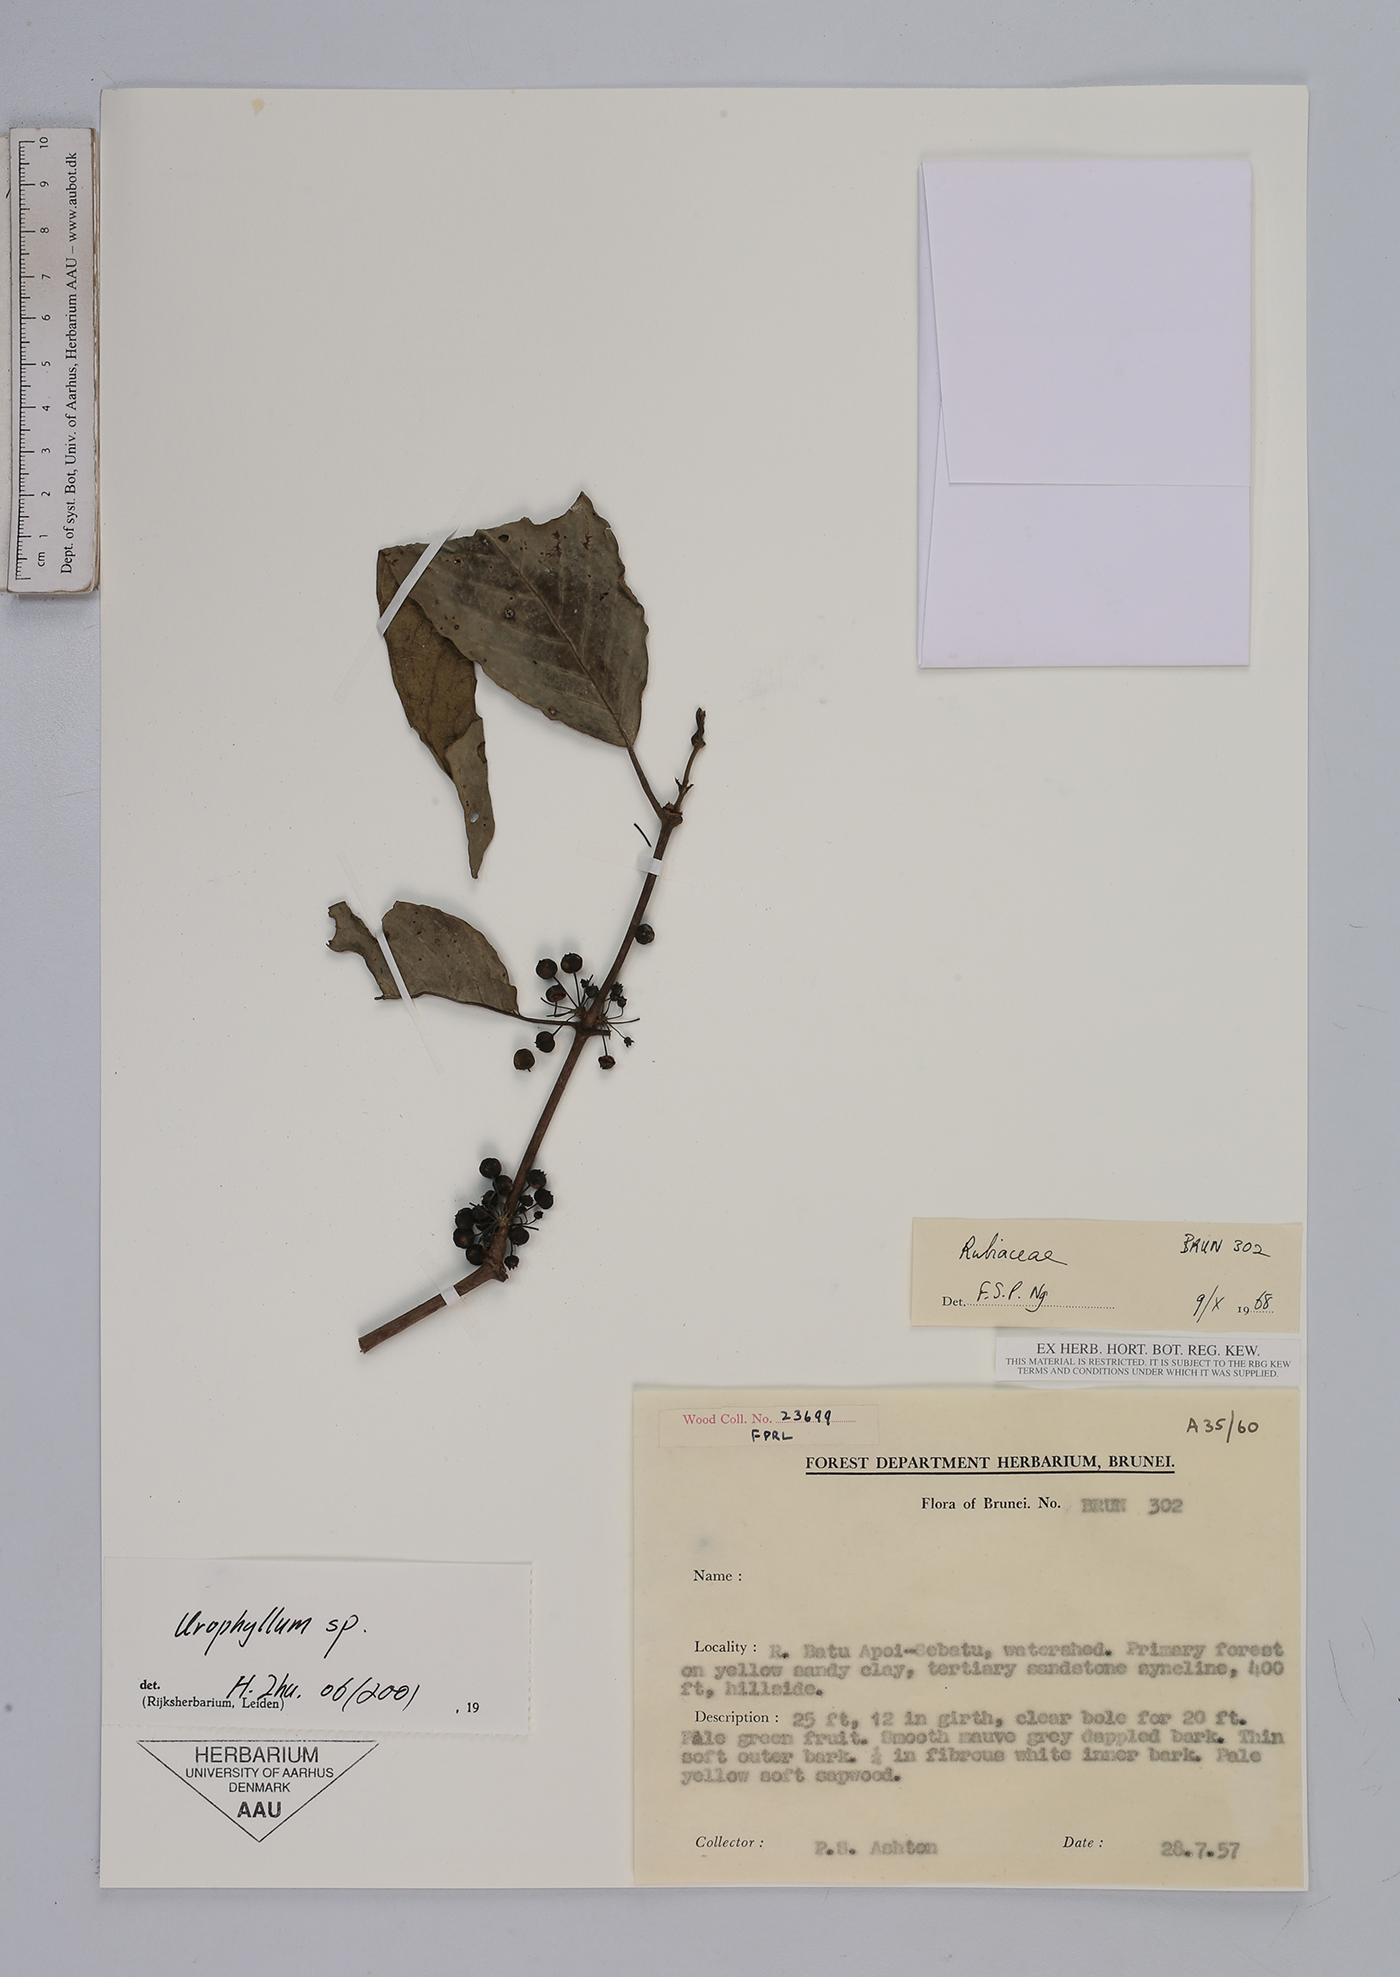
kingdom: Plantae
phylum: Tracheophyta
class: Magnoliopsida
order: Gentianales
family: Rubiaceae
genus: Urophyllum
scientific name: Urophyllum
